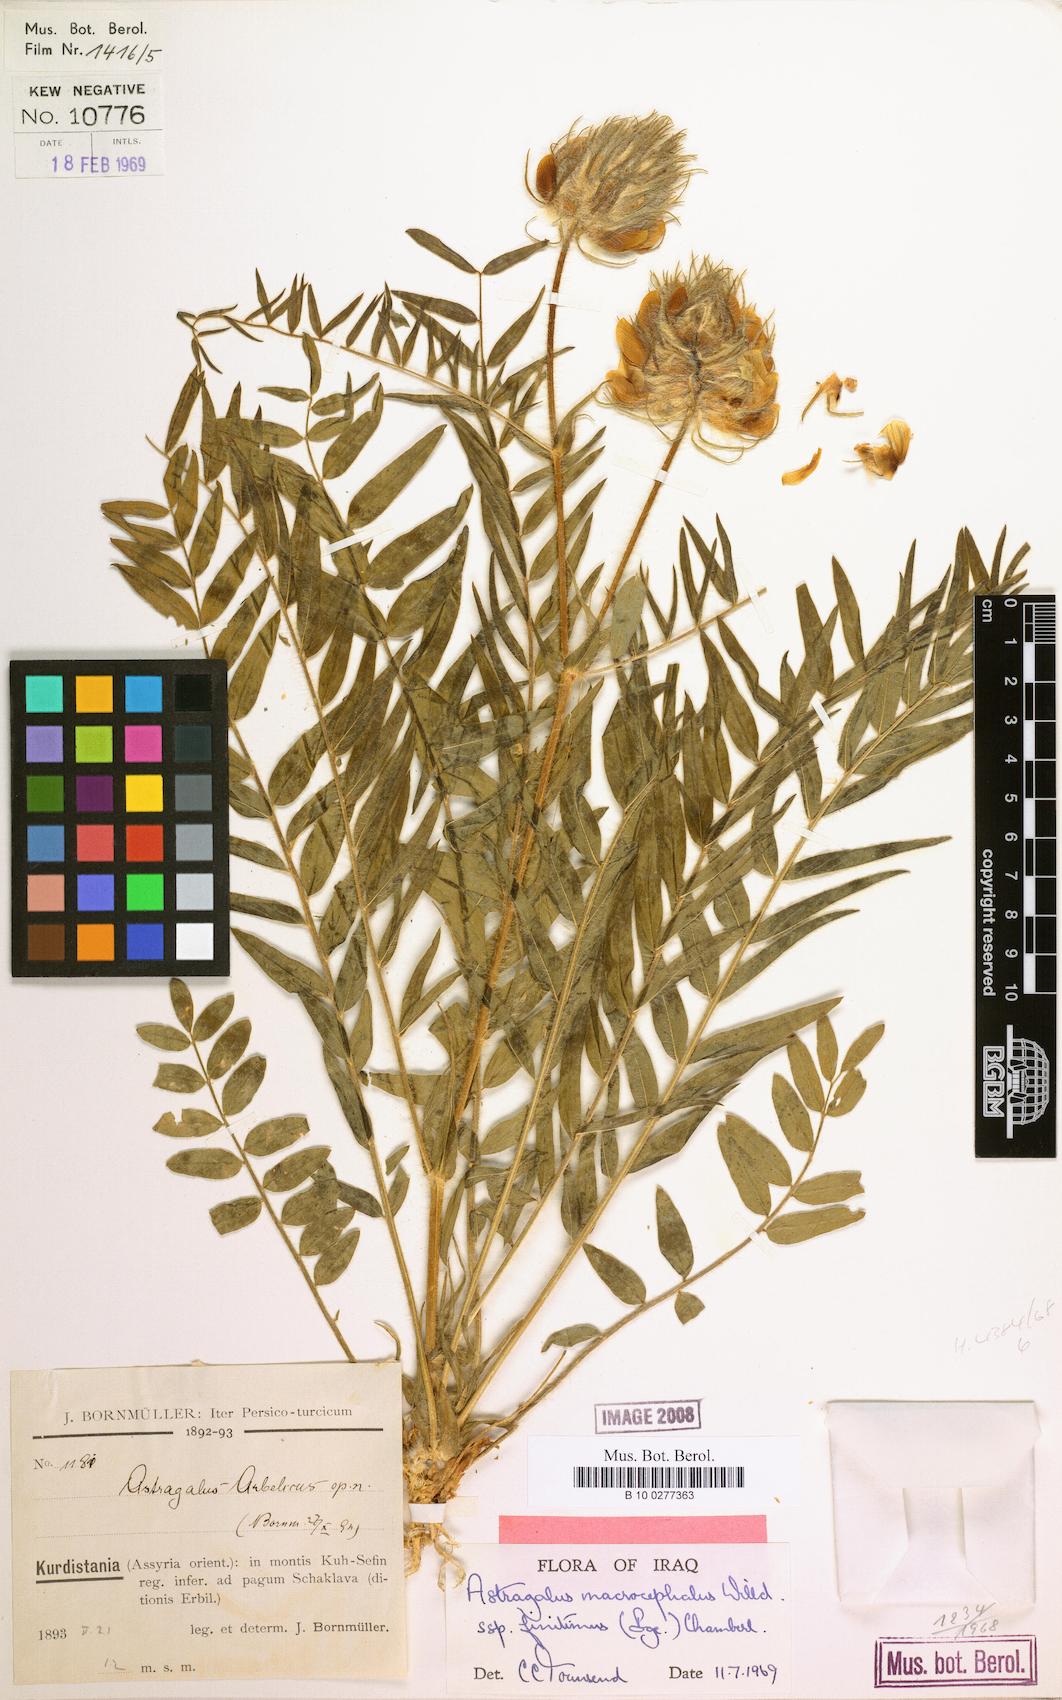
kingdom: Plantae
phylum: Tracheophyta
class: Magnoliopsida
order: Fabales
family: Fabaceae
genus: Astragalus
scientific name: Astragalus macrocephalus
